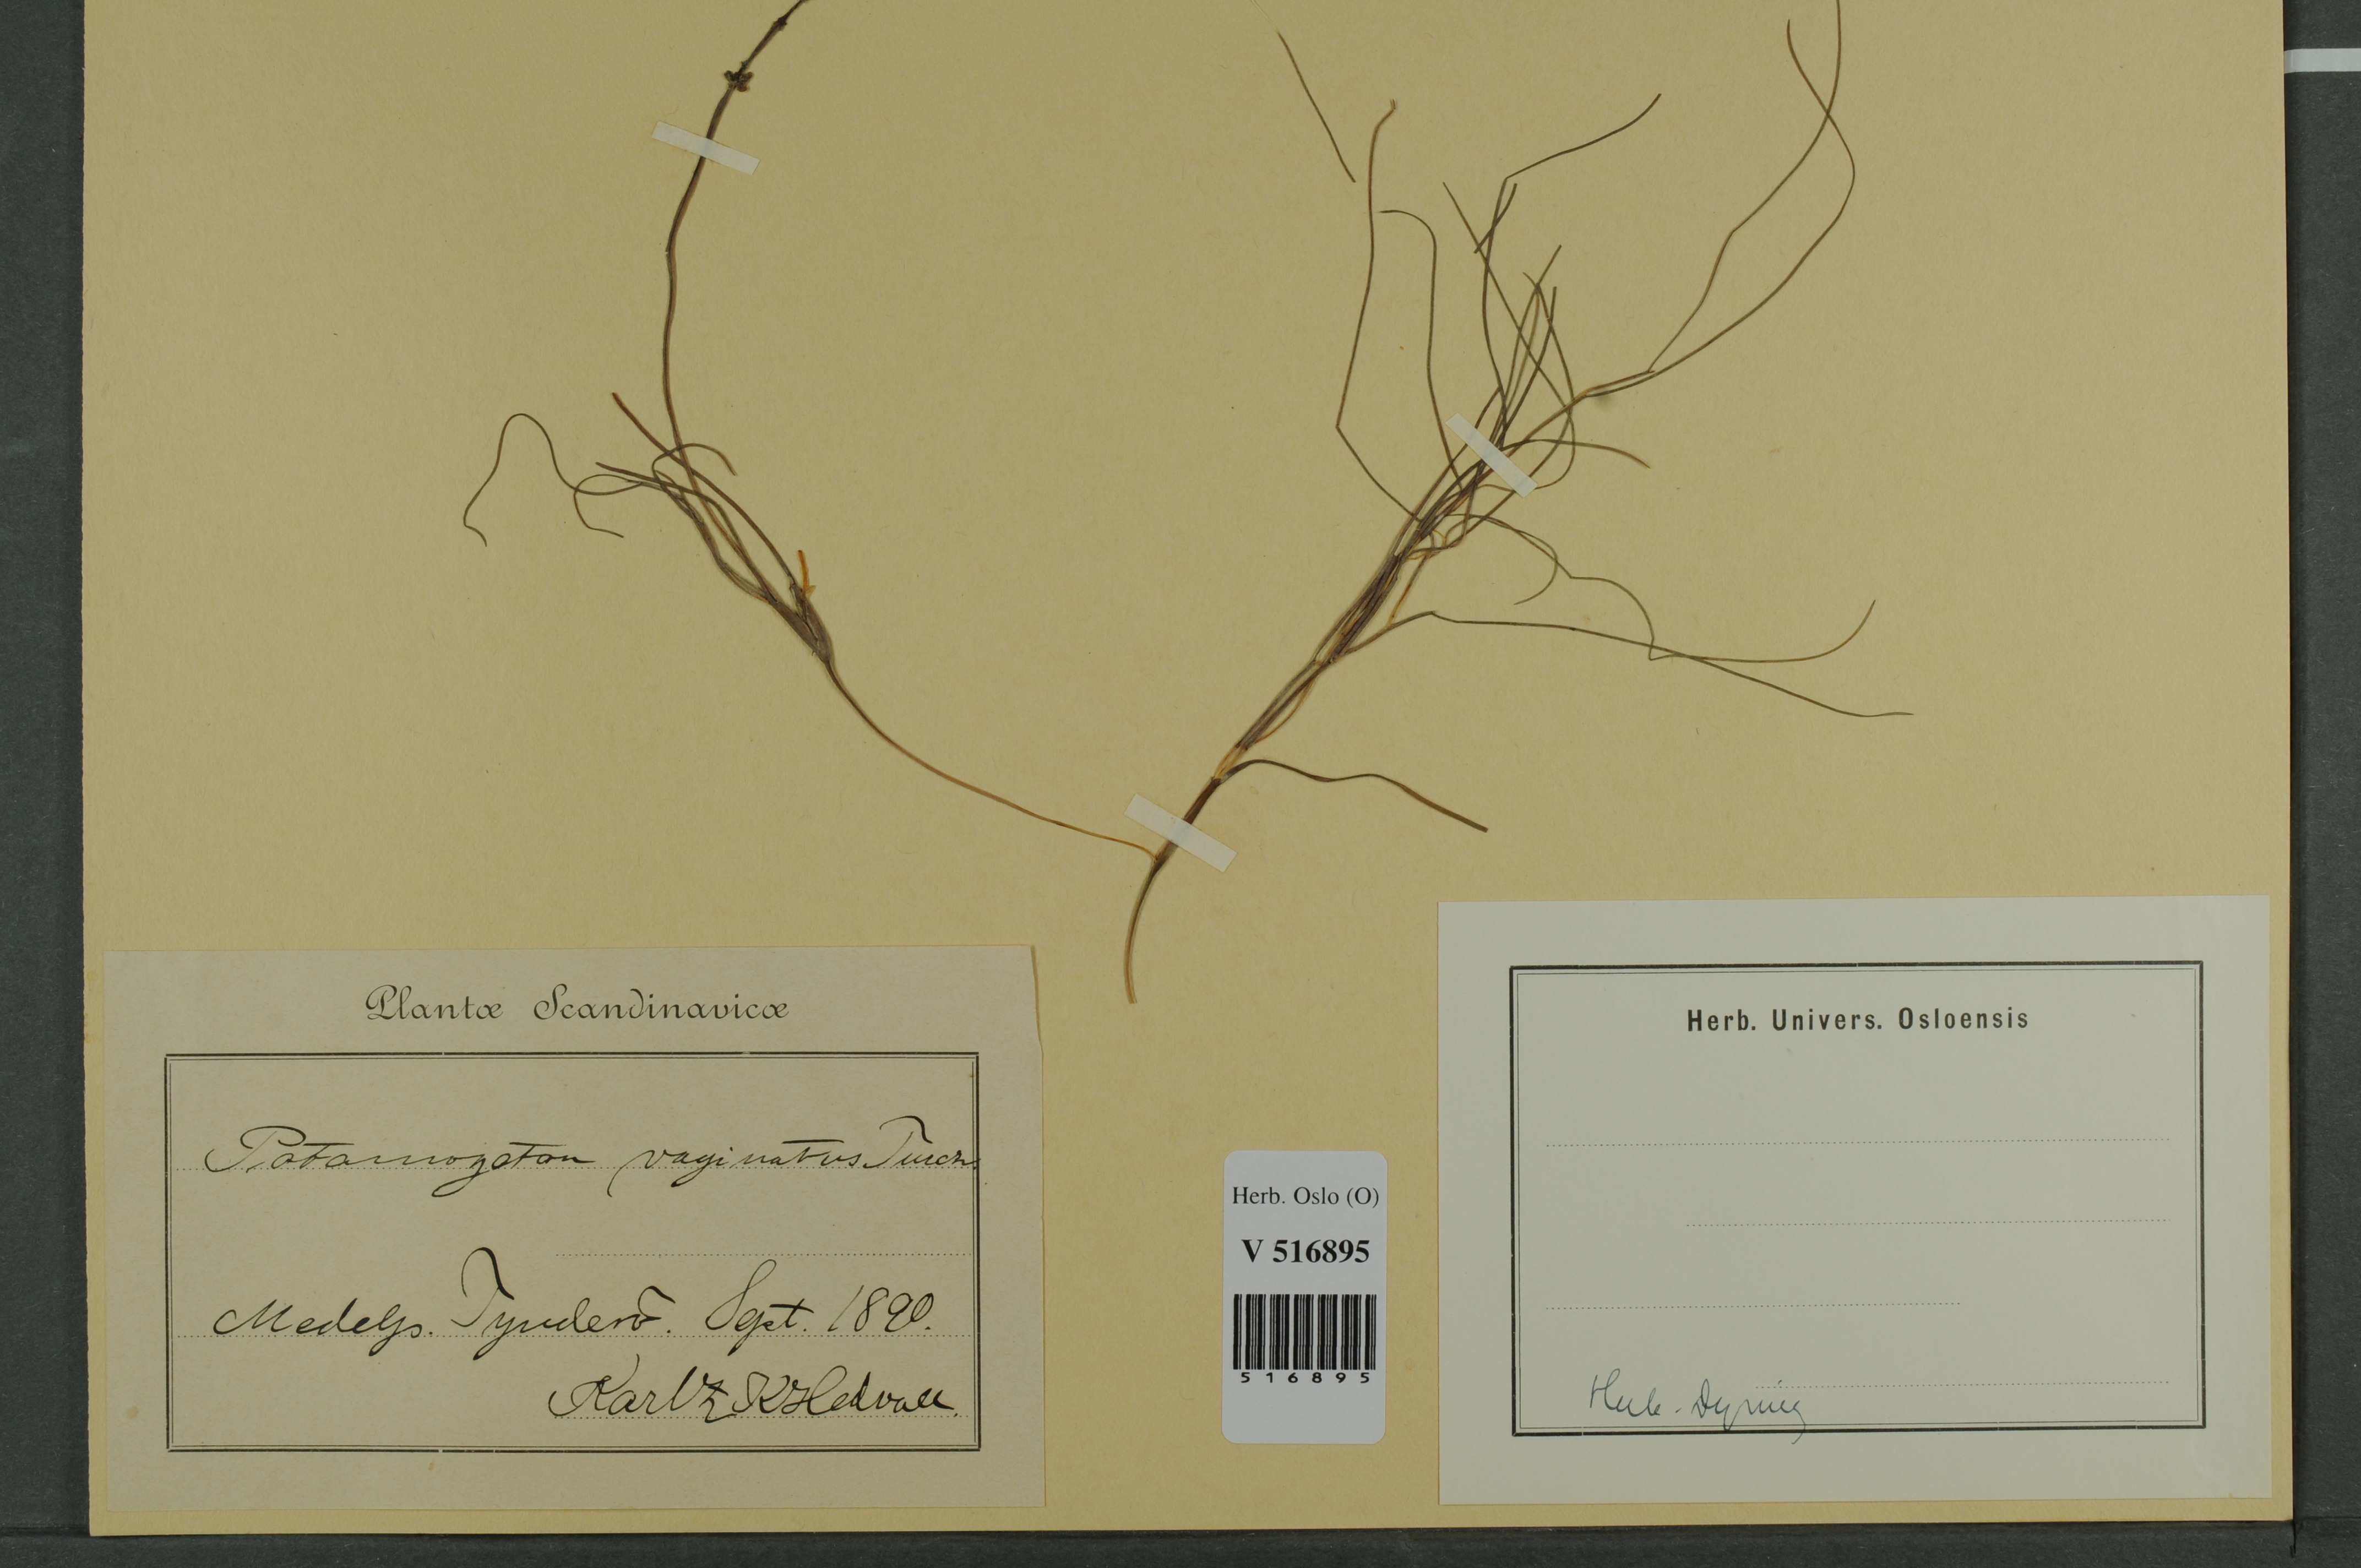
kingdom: Plantae
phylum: Tracheophyta
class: Liliopsida
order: Alismatales
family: Potamogetonaceae
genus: Stuckenia
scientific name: Stuckenia vaginata
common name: Big-sheathed pondweed
